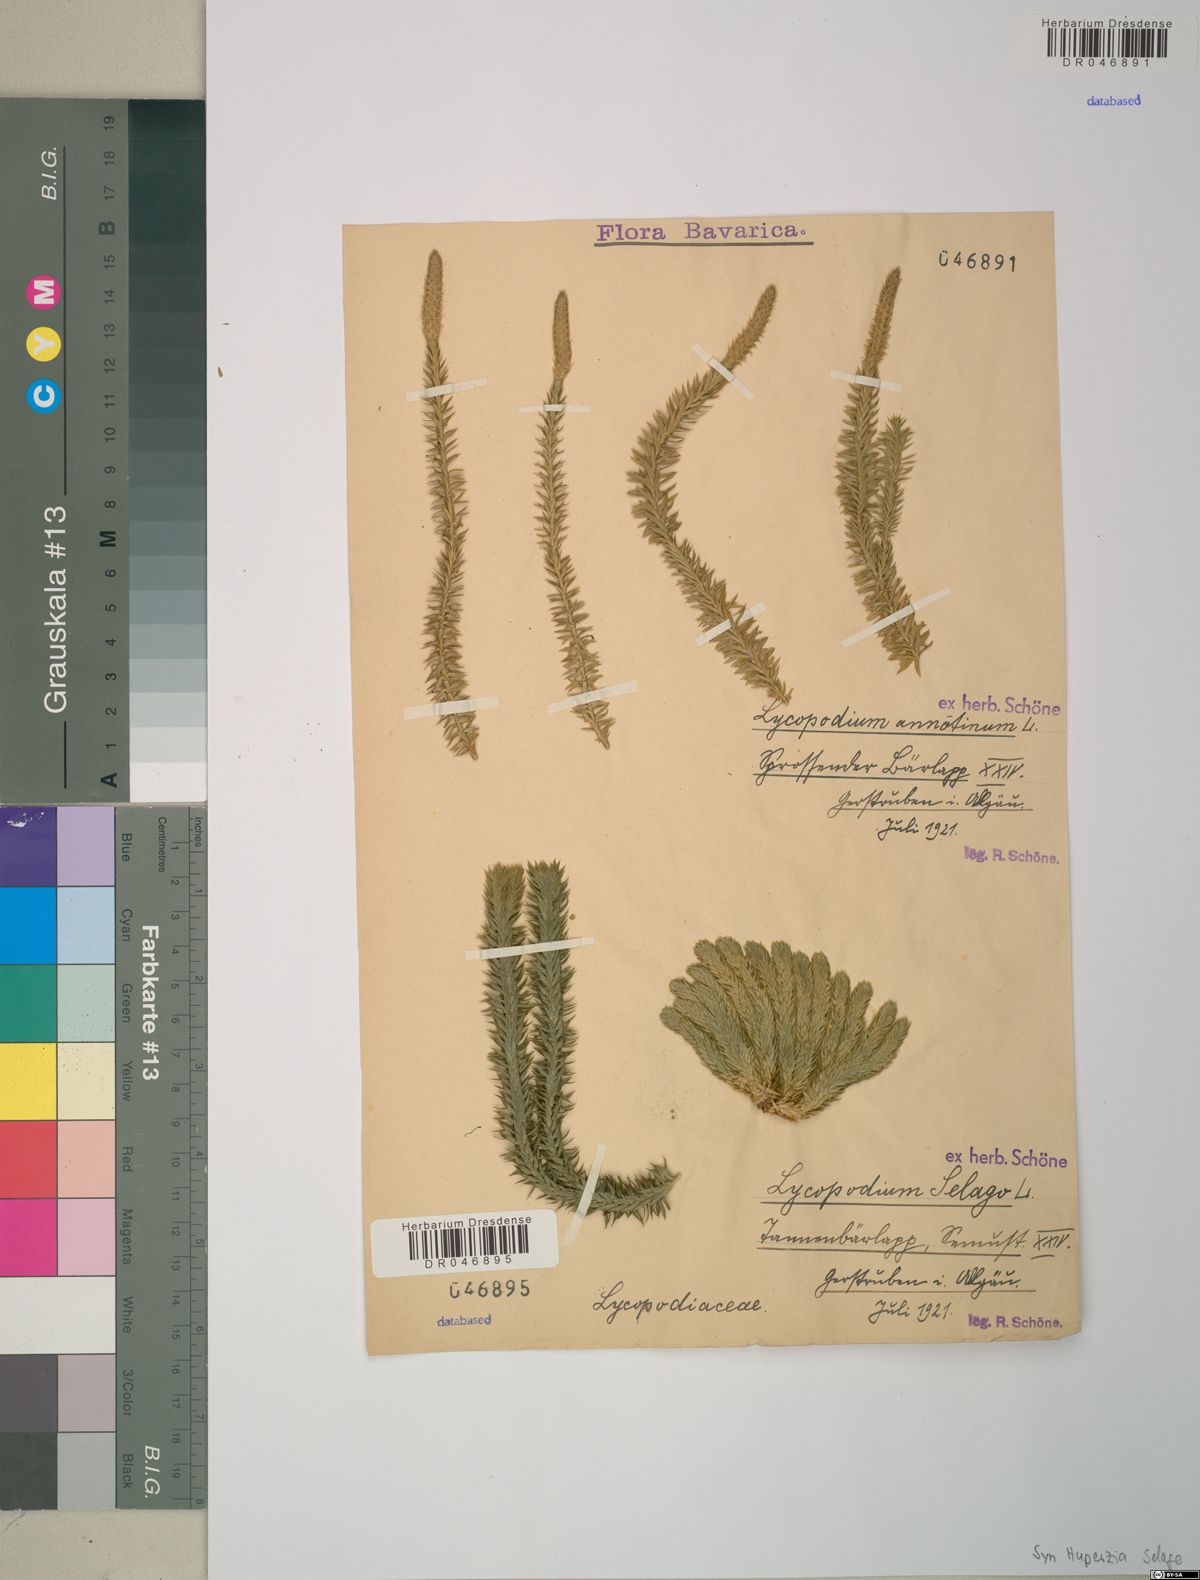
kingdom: Plantae
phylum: Tracheophyta
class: Lycopodiopsida
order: Lycopodiales
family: Lycopodiaceae
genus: Huperzia
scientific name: Huperzia selago
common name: Northern firmoss
